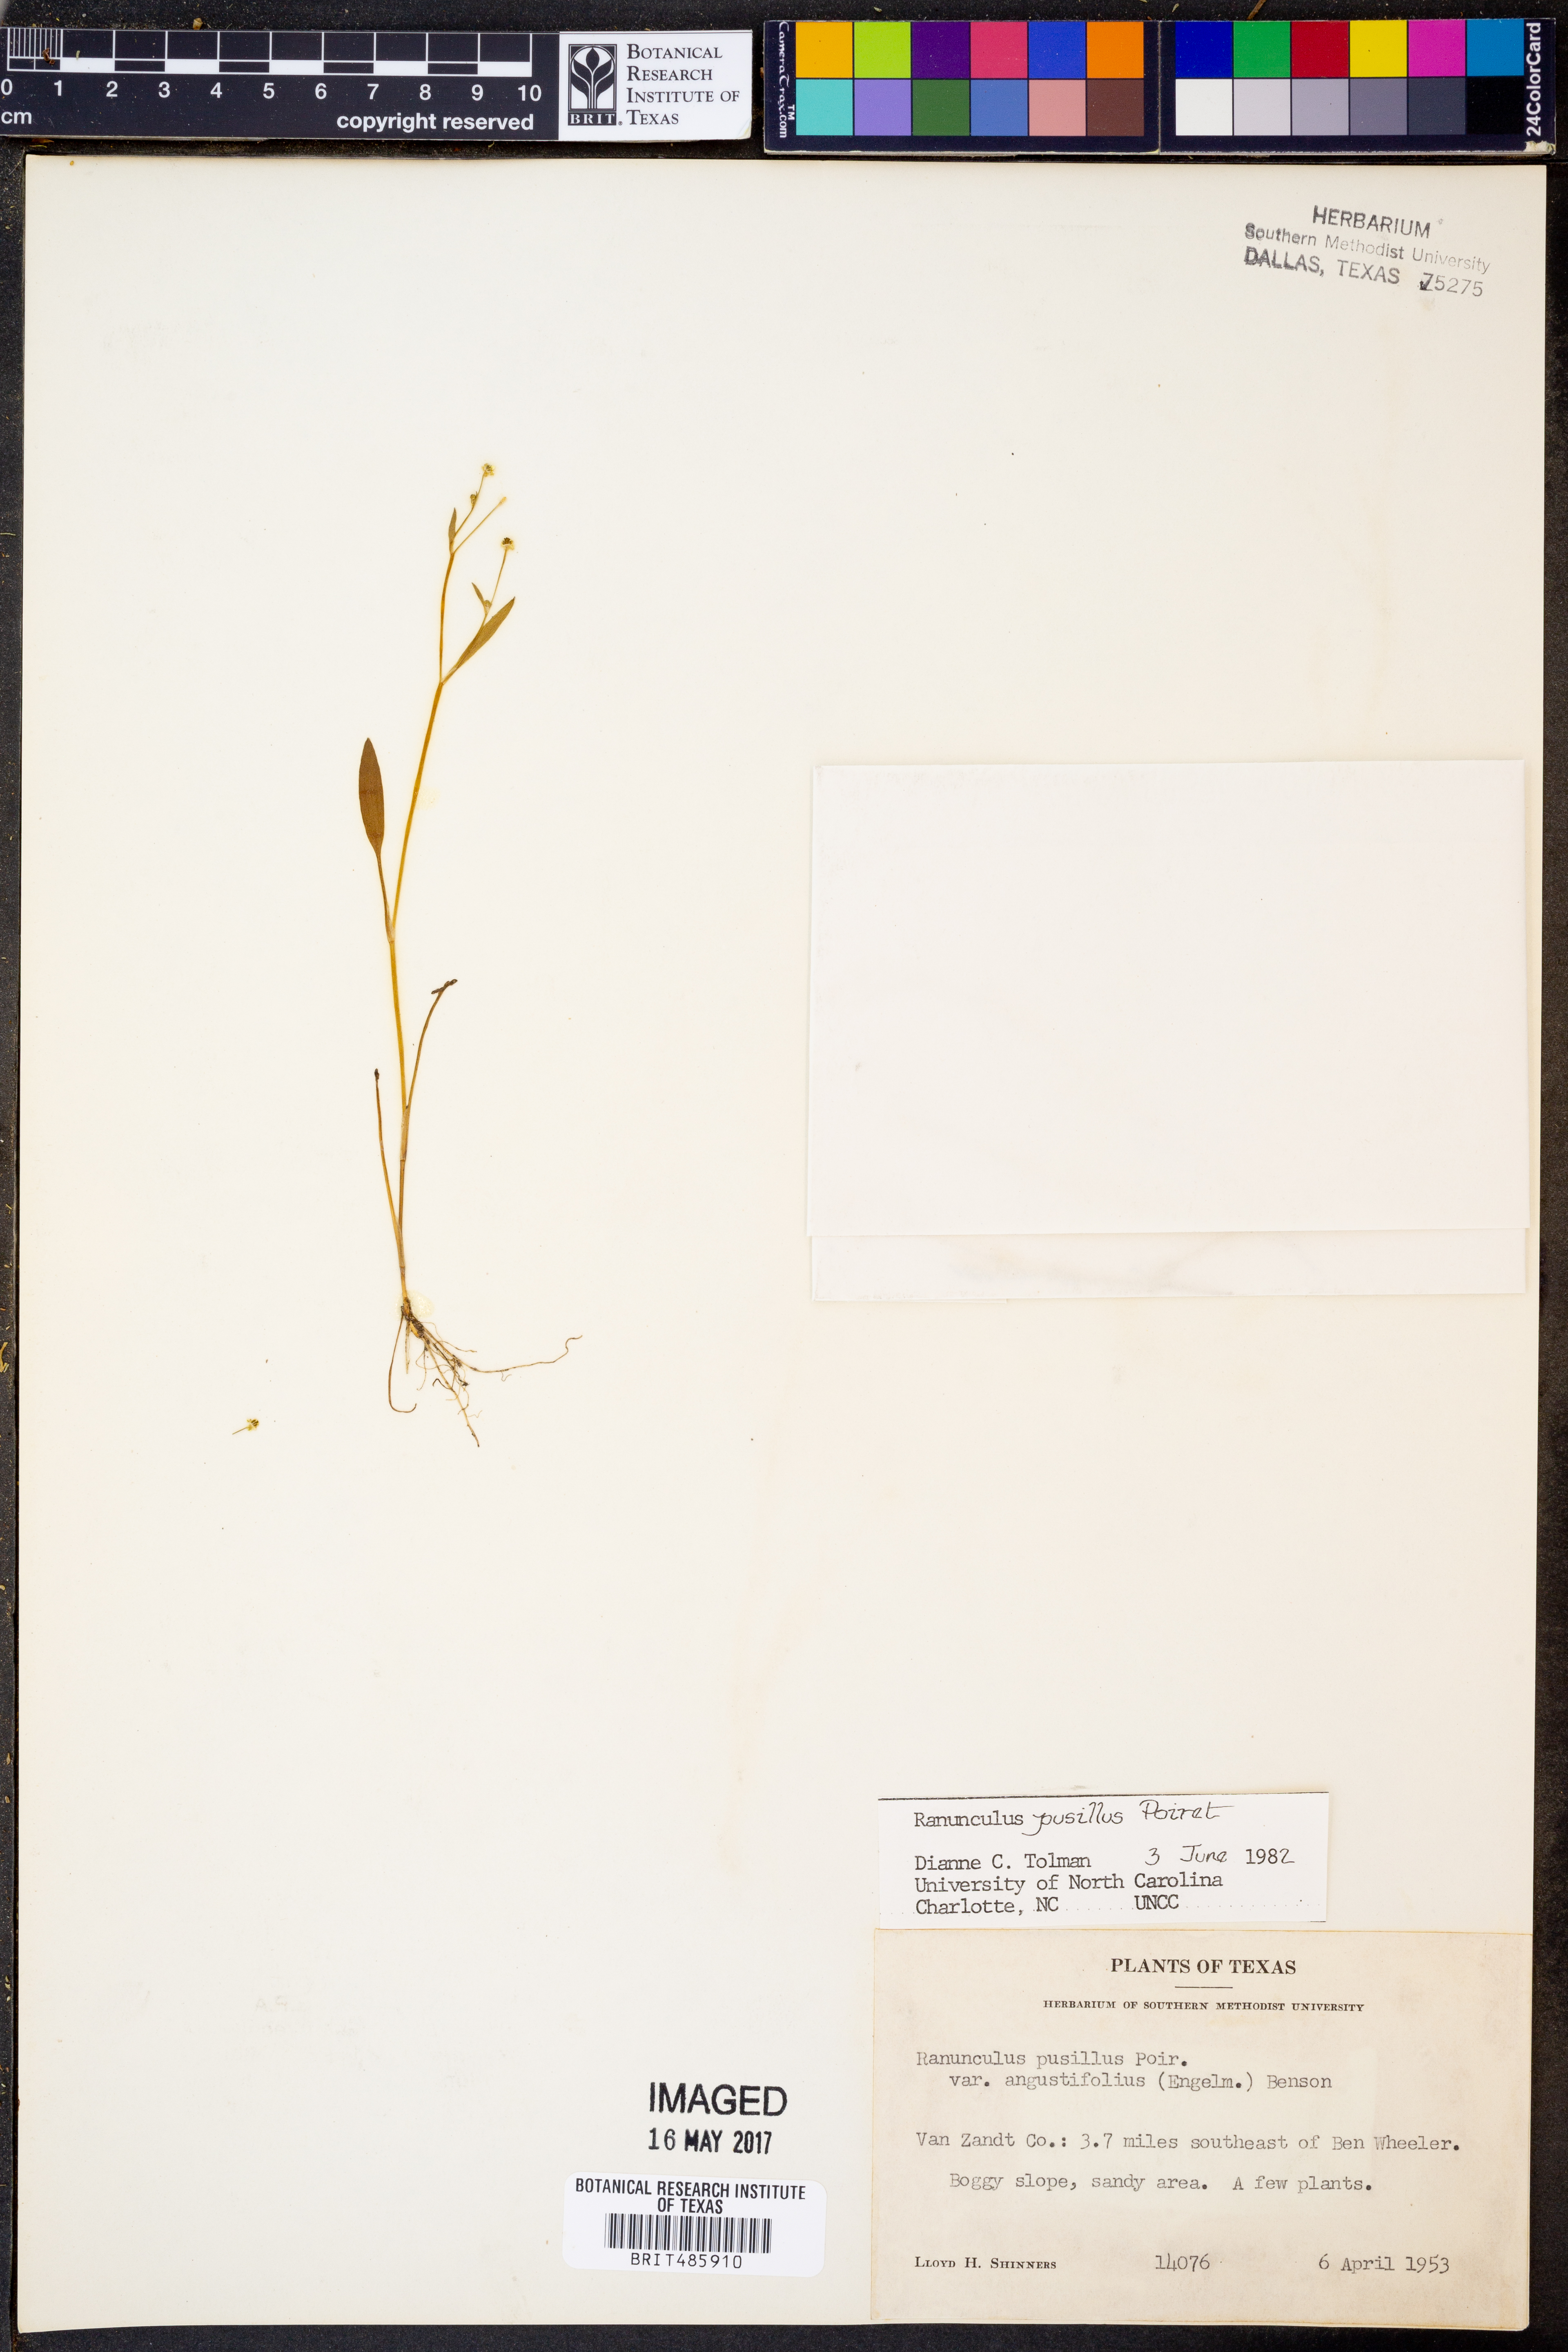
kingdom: Plantae
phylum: Tracheophyta
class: Magnoliopsida
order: Ranunculales
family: Ranunculaceae
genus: Ranunculus
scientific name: Ranunculus pusillus
